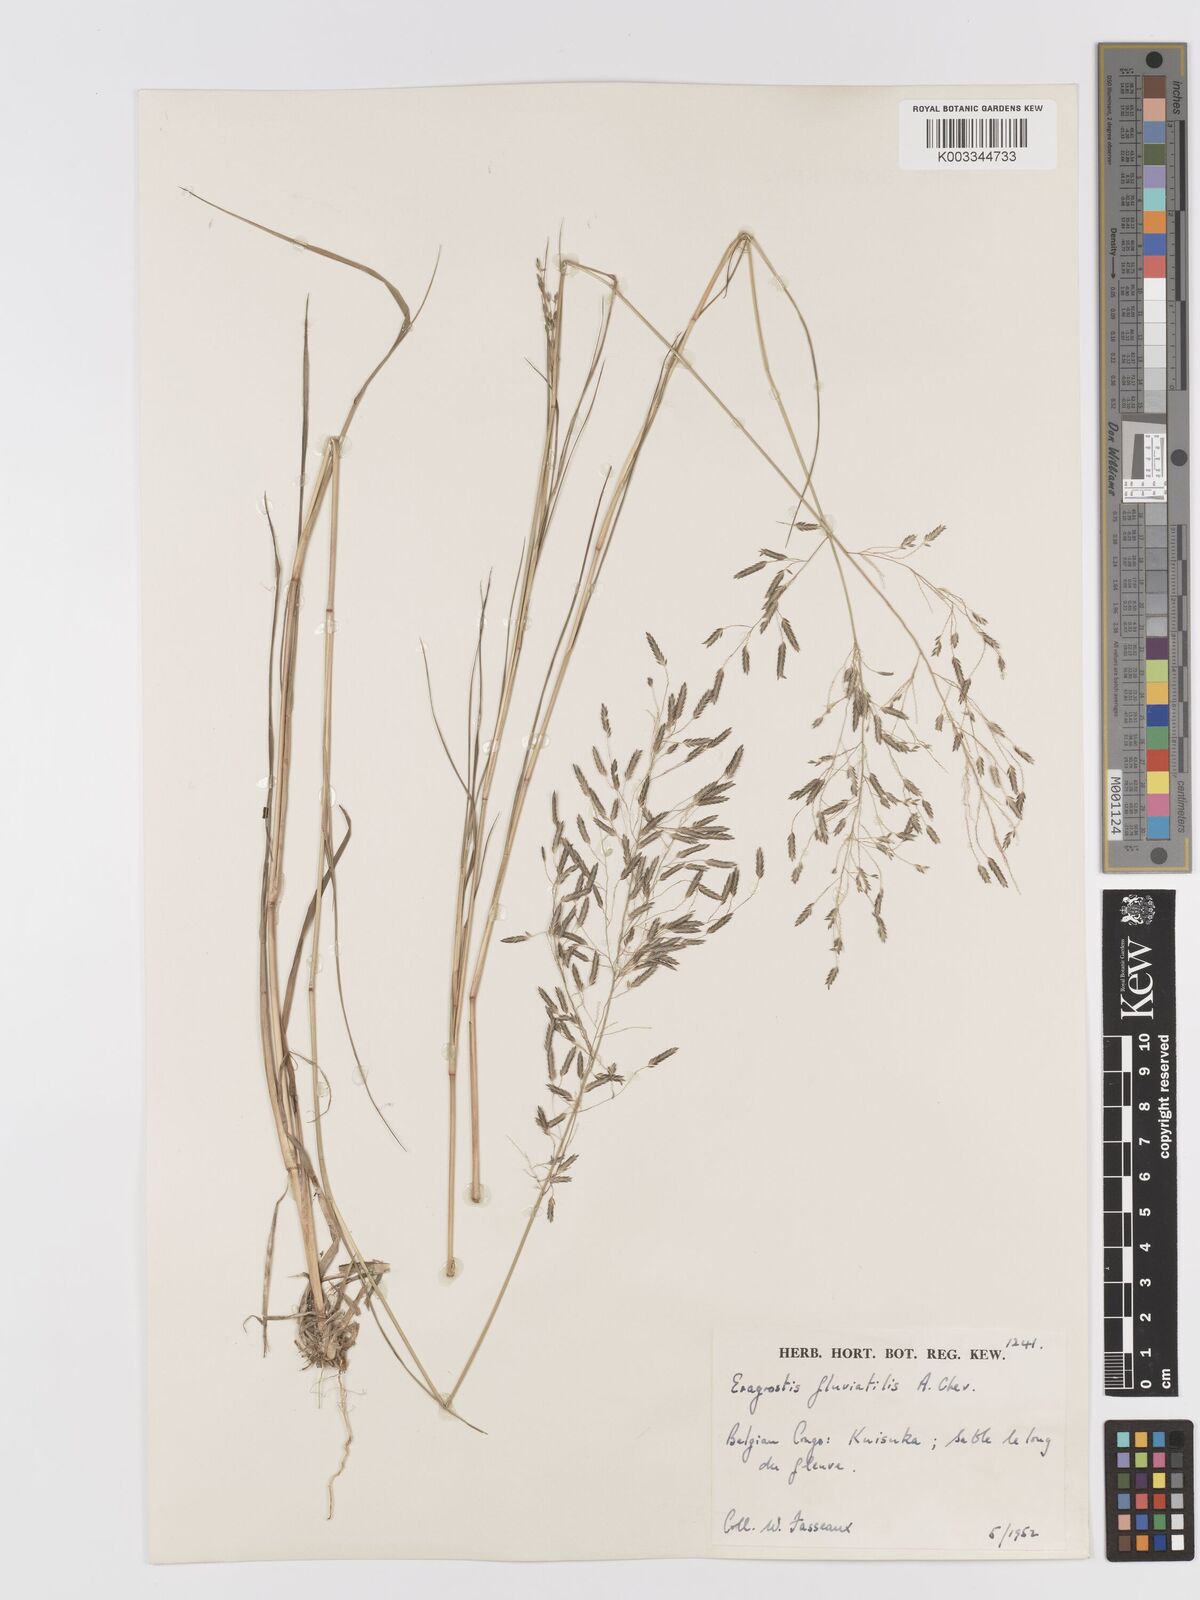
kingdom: Plantae
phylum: Tracheophyta
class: Liliopsida
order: Poales
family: Poaceae
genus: Eragrostis
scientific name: Eragrostis barteri
